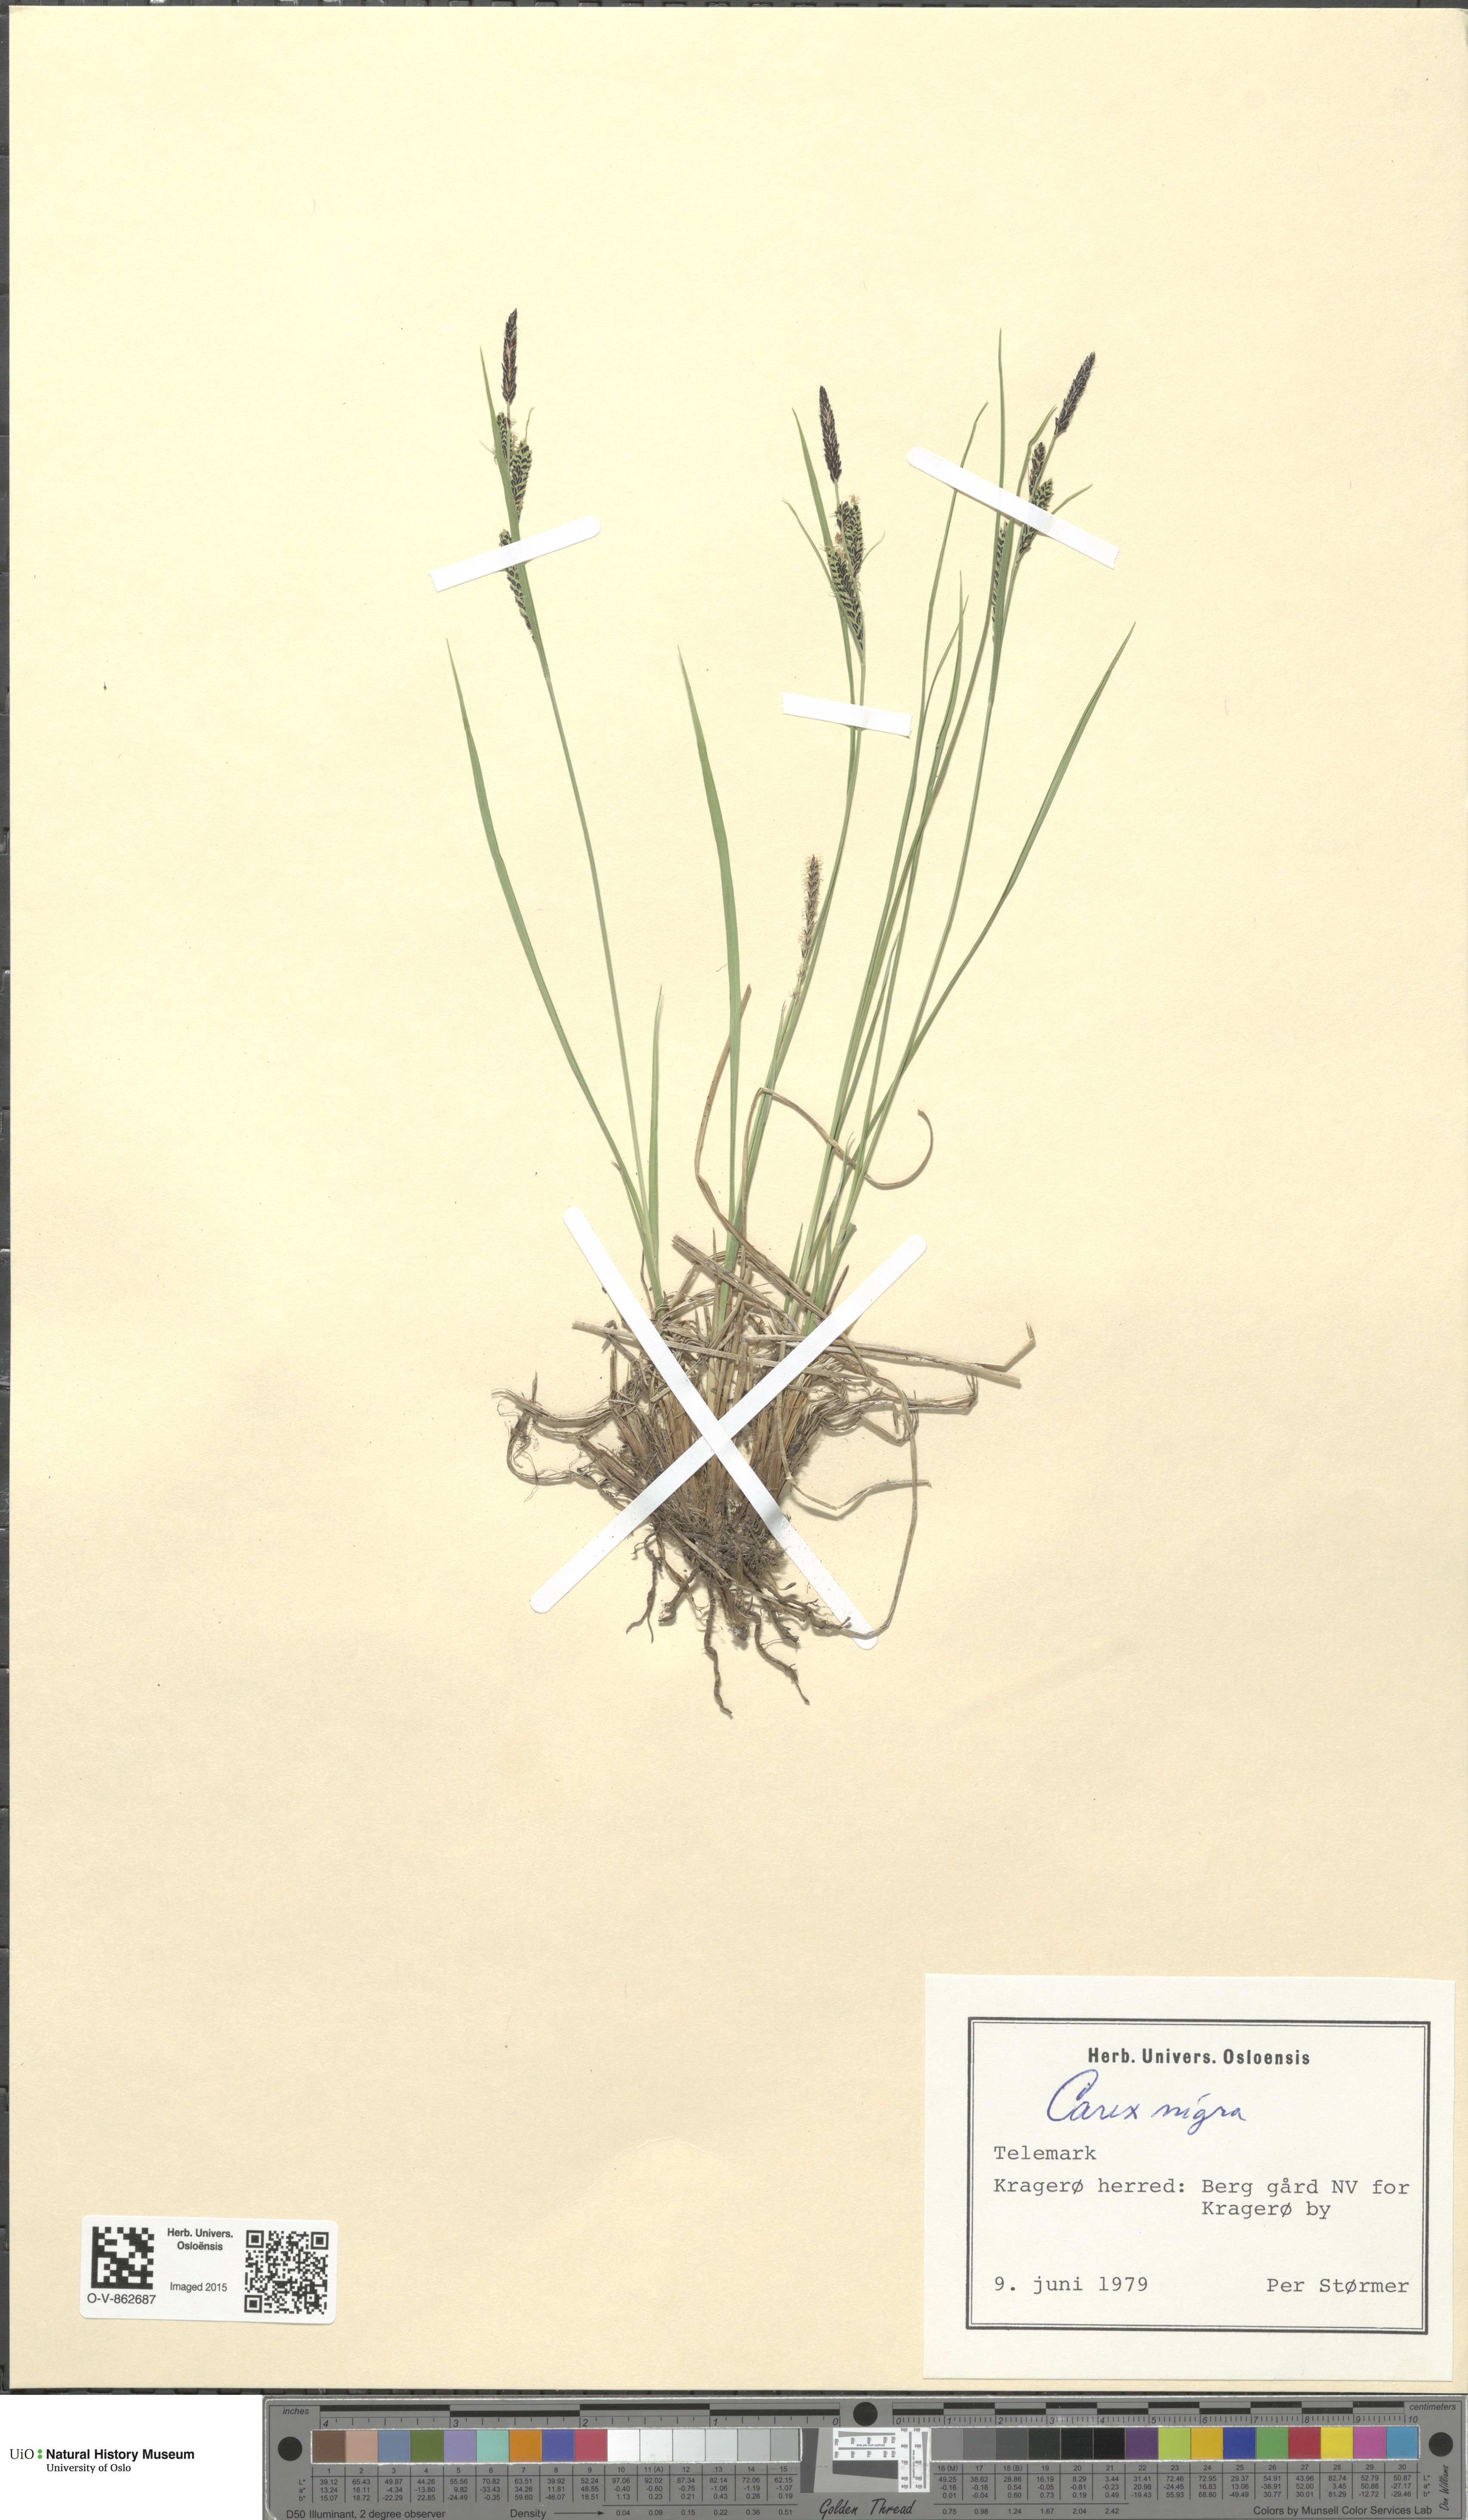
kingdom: Plantae
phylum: Tracheophyta
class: Liliopsida
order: Poales
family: Cyperaceae
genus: Carex
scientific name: Carex nigra
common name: Common sedge
